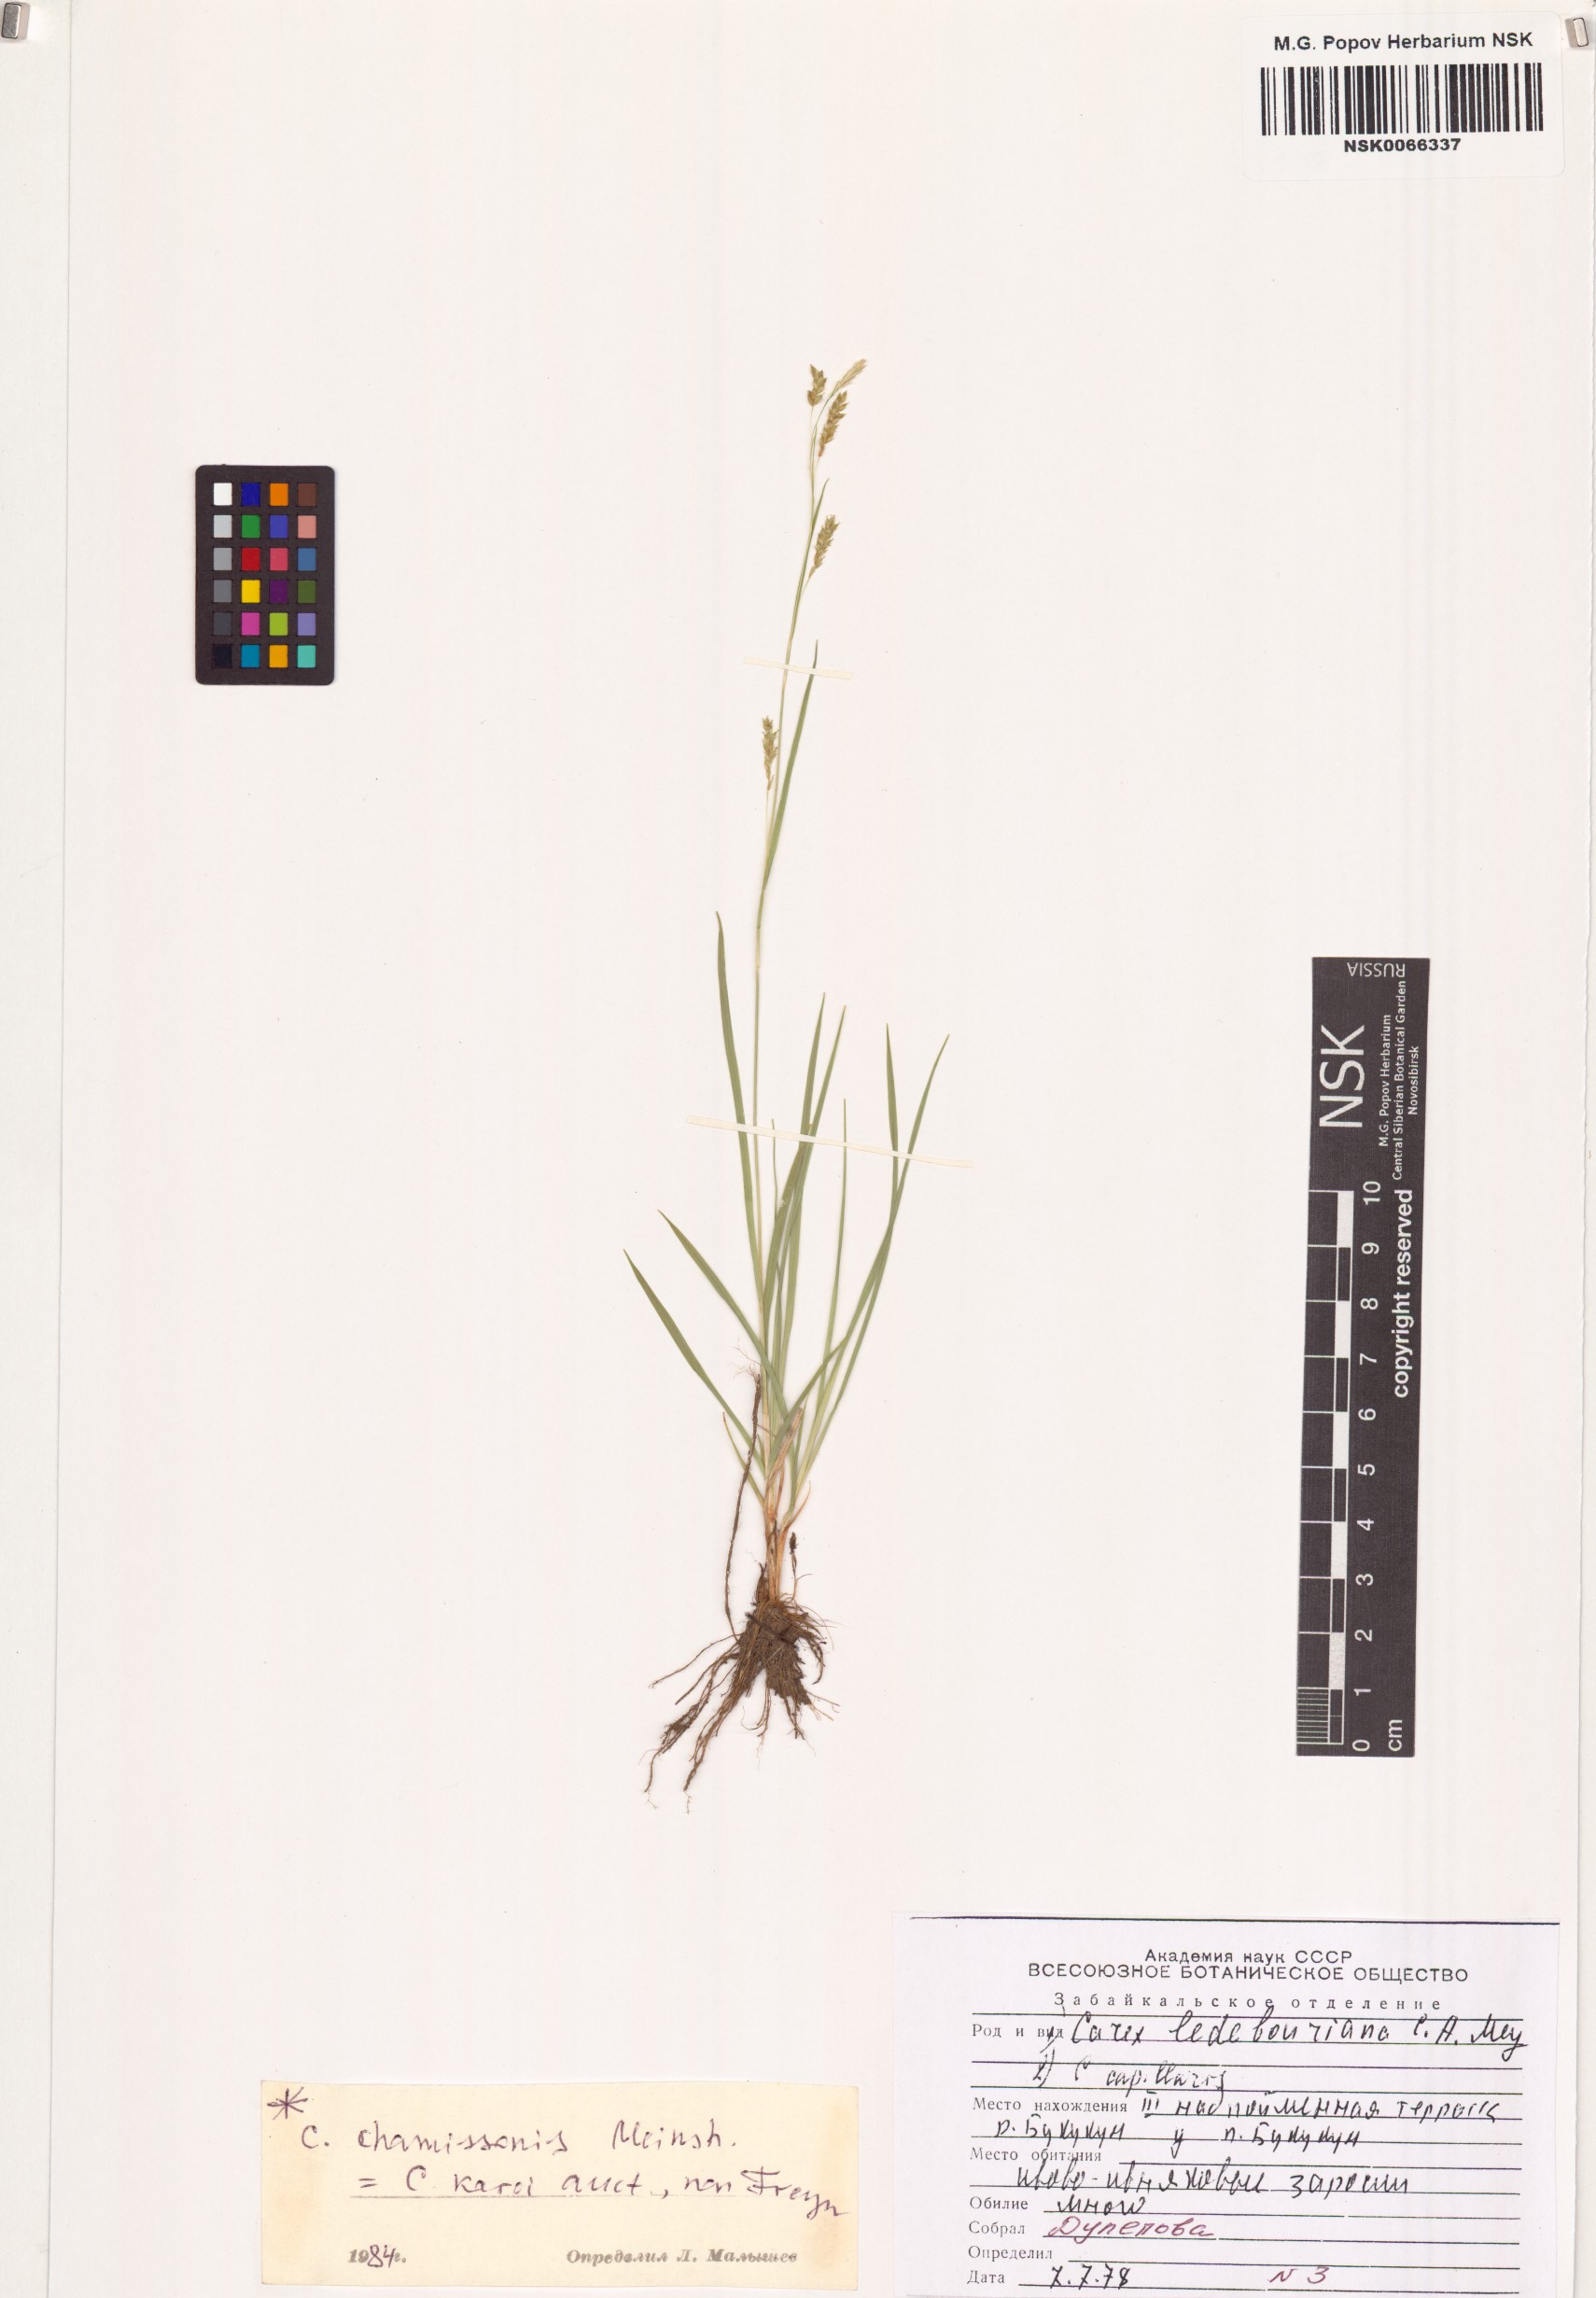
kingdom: Plantae
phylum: Tracheophyta
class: Liliopsida
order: Poales
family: Cyperaceae
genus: Carex
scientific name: Carex krausei
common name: Krause's sedge
